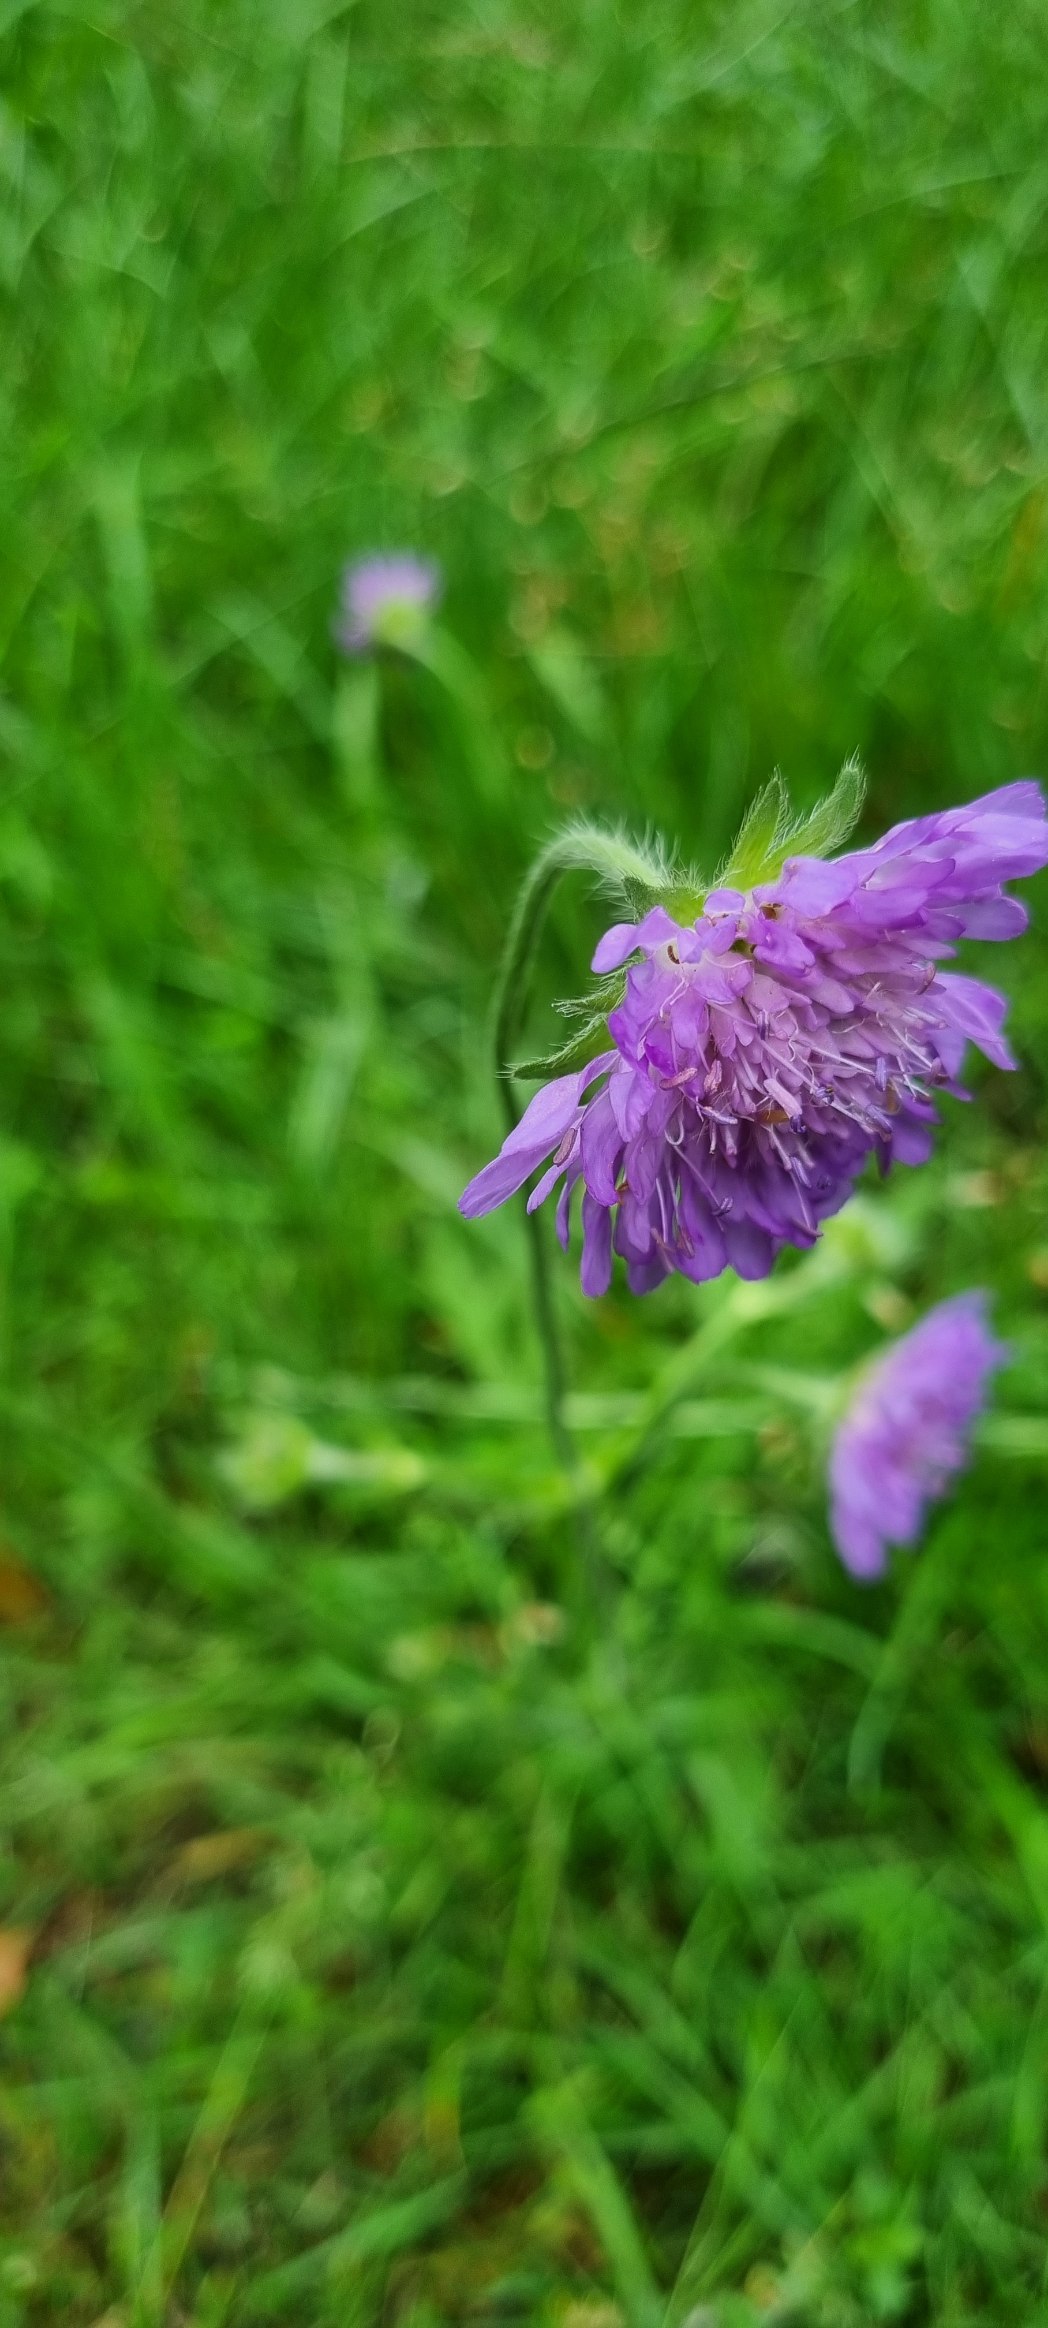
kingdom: Plantae
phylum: Tracheophyta
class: Magnoliopsida
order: Dipsacales
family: Caprifoliaceae
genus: Knautia
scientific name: Knautia arvensis
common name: Blåhat
